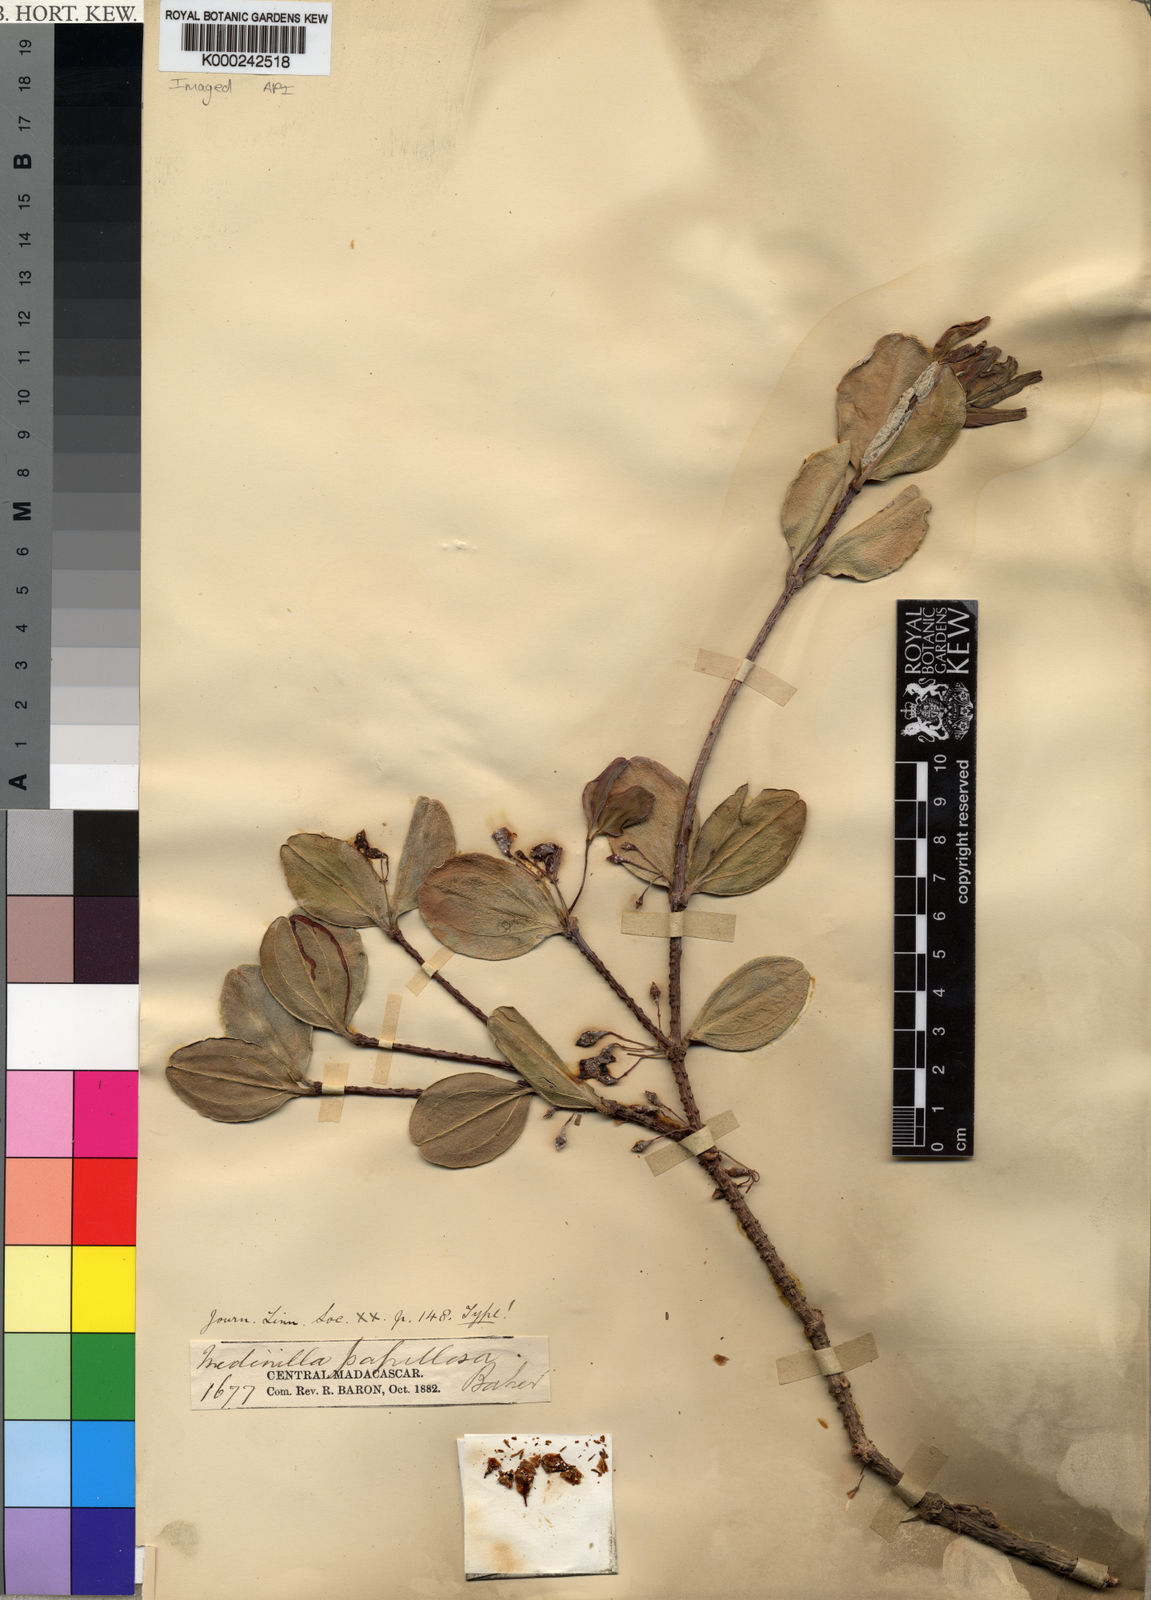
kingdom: Plantae
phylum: Tracheophyta
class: Magnoliopsida
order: Myrtales
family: Melastomataceae
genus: Medinilla
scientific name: Medinilla papillosa
